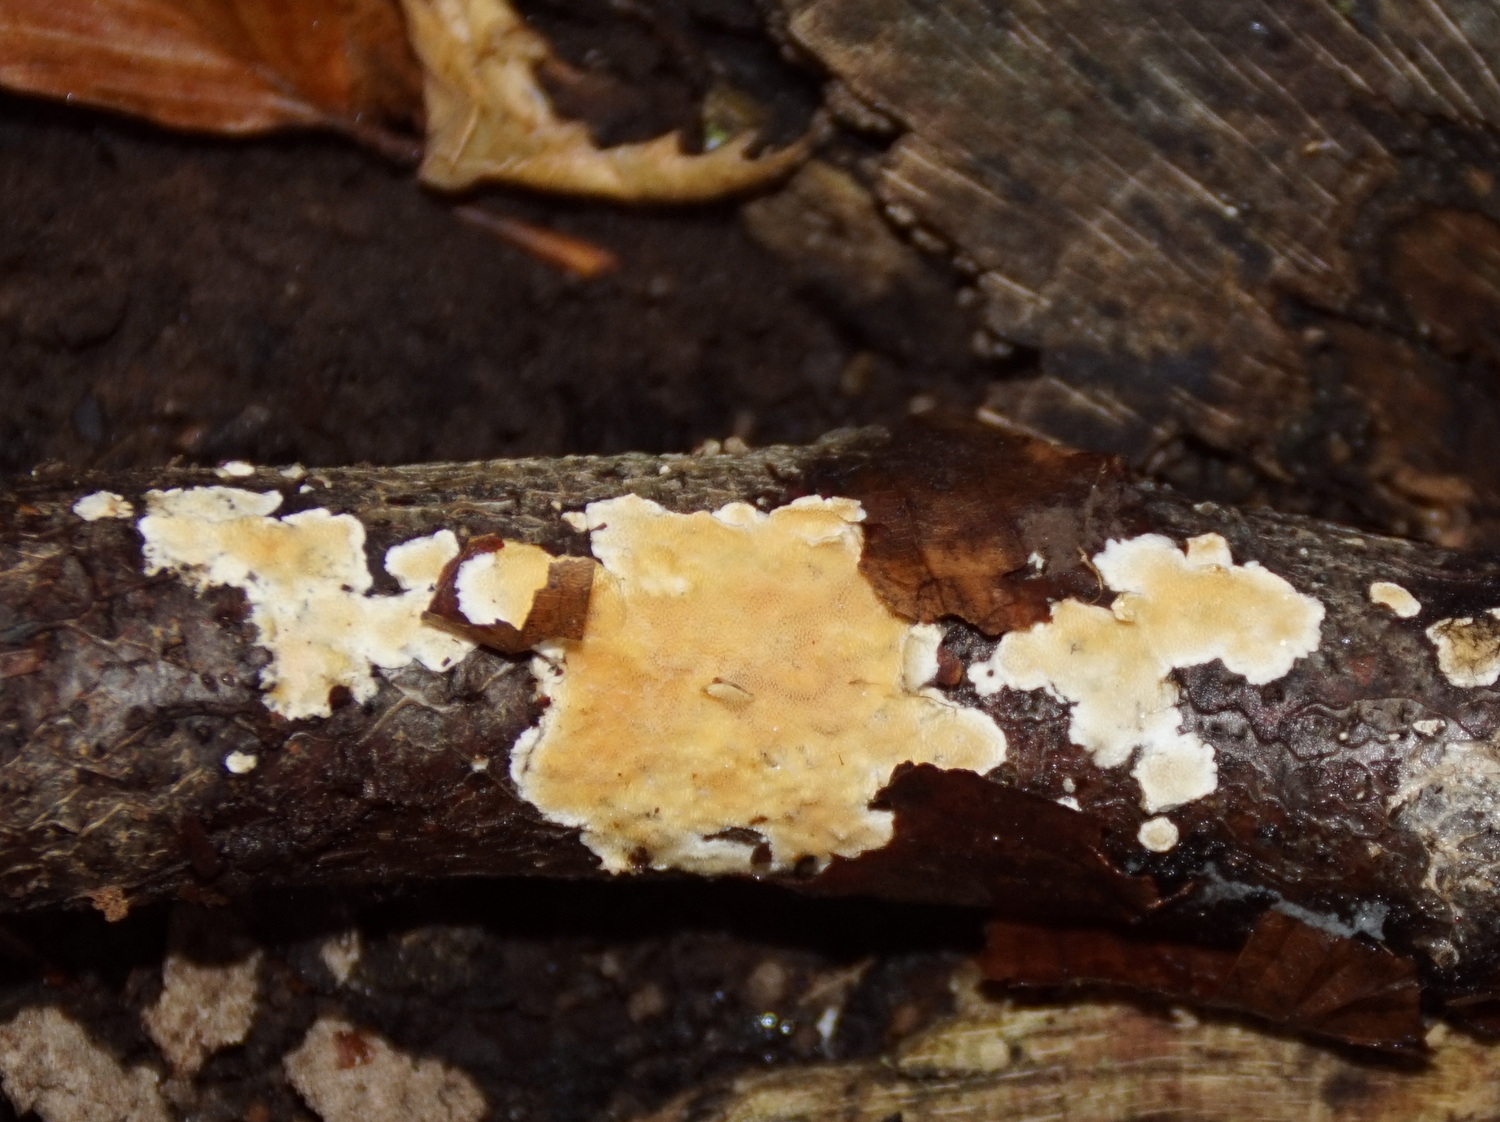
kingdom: Fungi
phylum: Basidiomycota
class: Agaricomycetes
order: Polyporales
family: Steccherinaceae
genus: Steccherinum
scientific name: Steccherinum ochraceum
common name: almindelig skønpig
